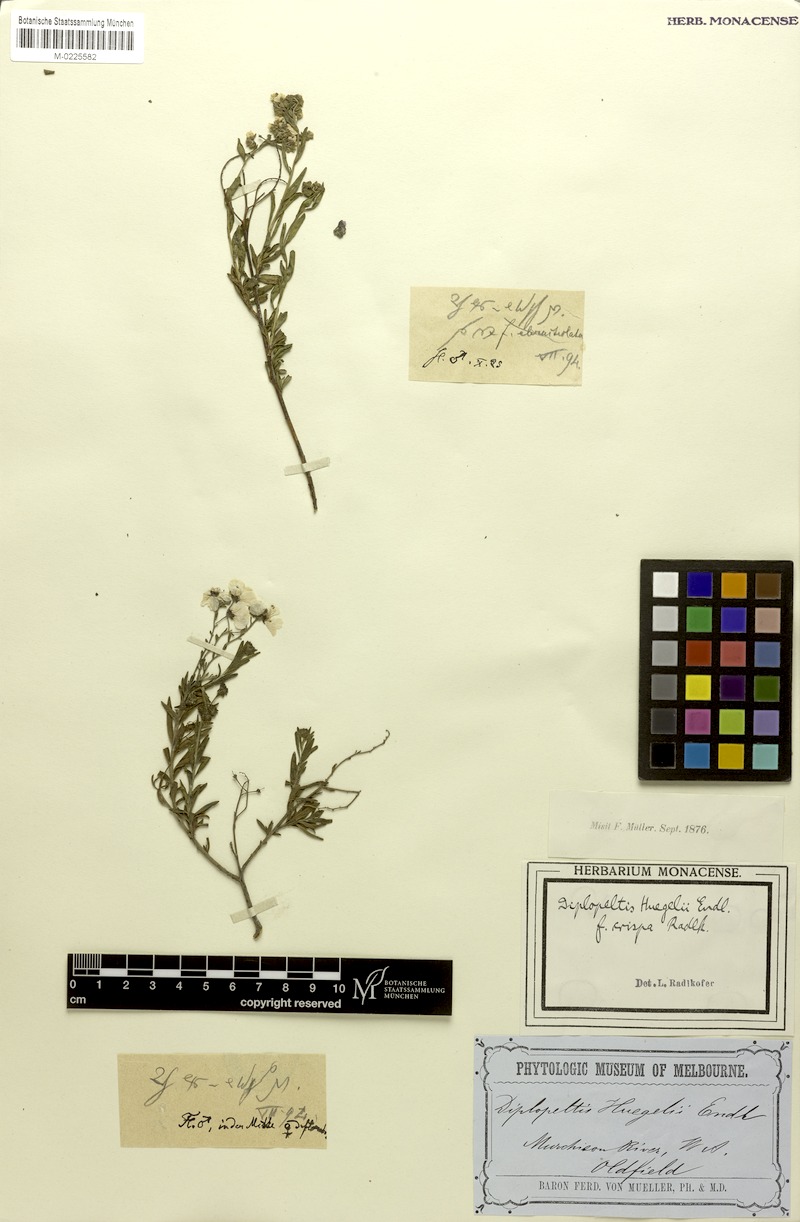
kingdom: Plantae
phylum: Tracheophyta
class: Magnoliopsida
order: Sapindales
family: Sapindaceae
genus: Diplopeltis
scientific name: Diplopeltis huegelii
